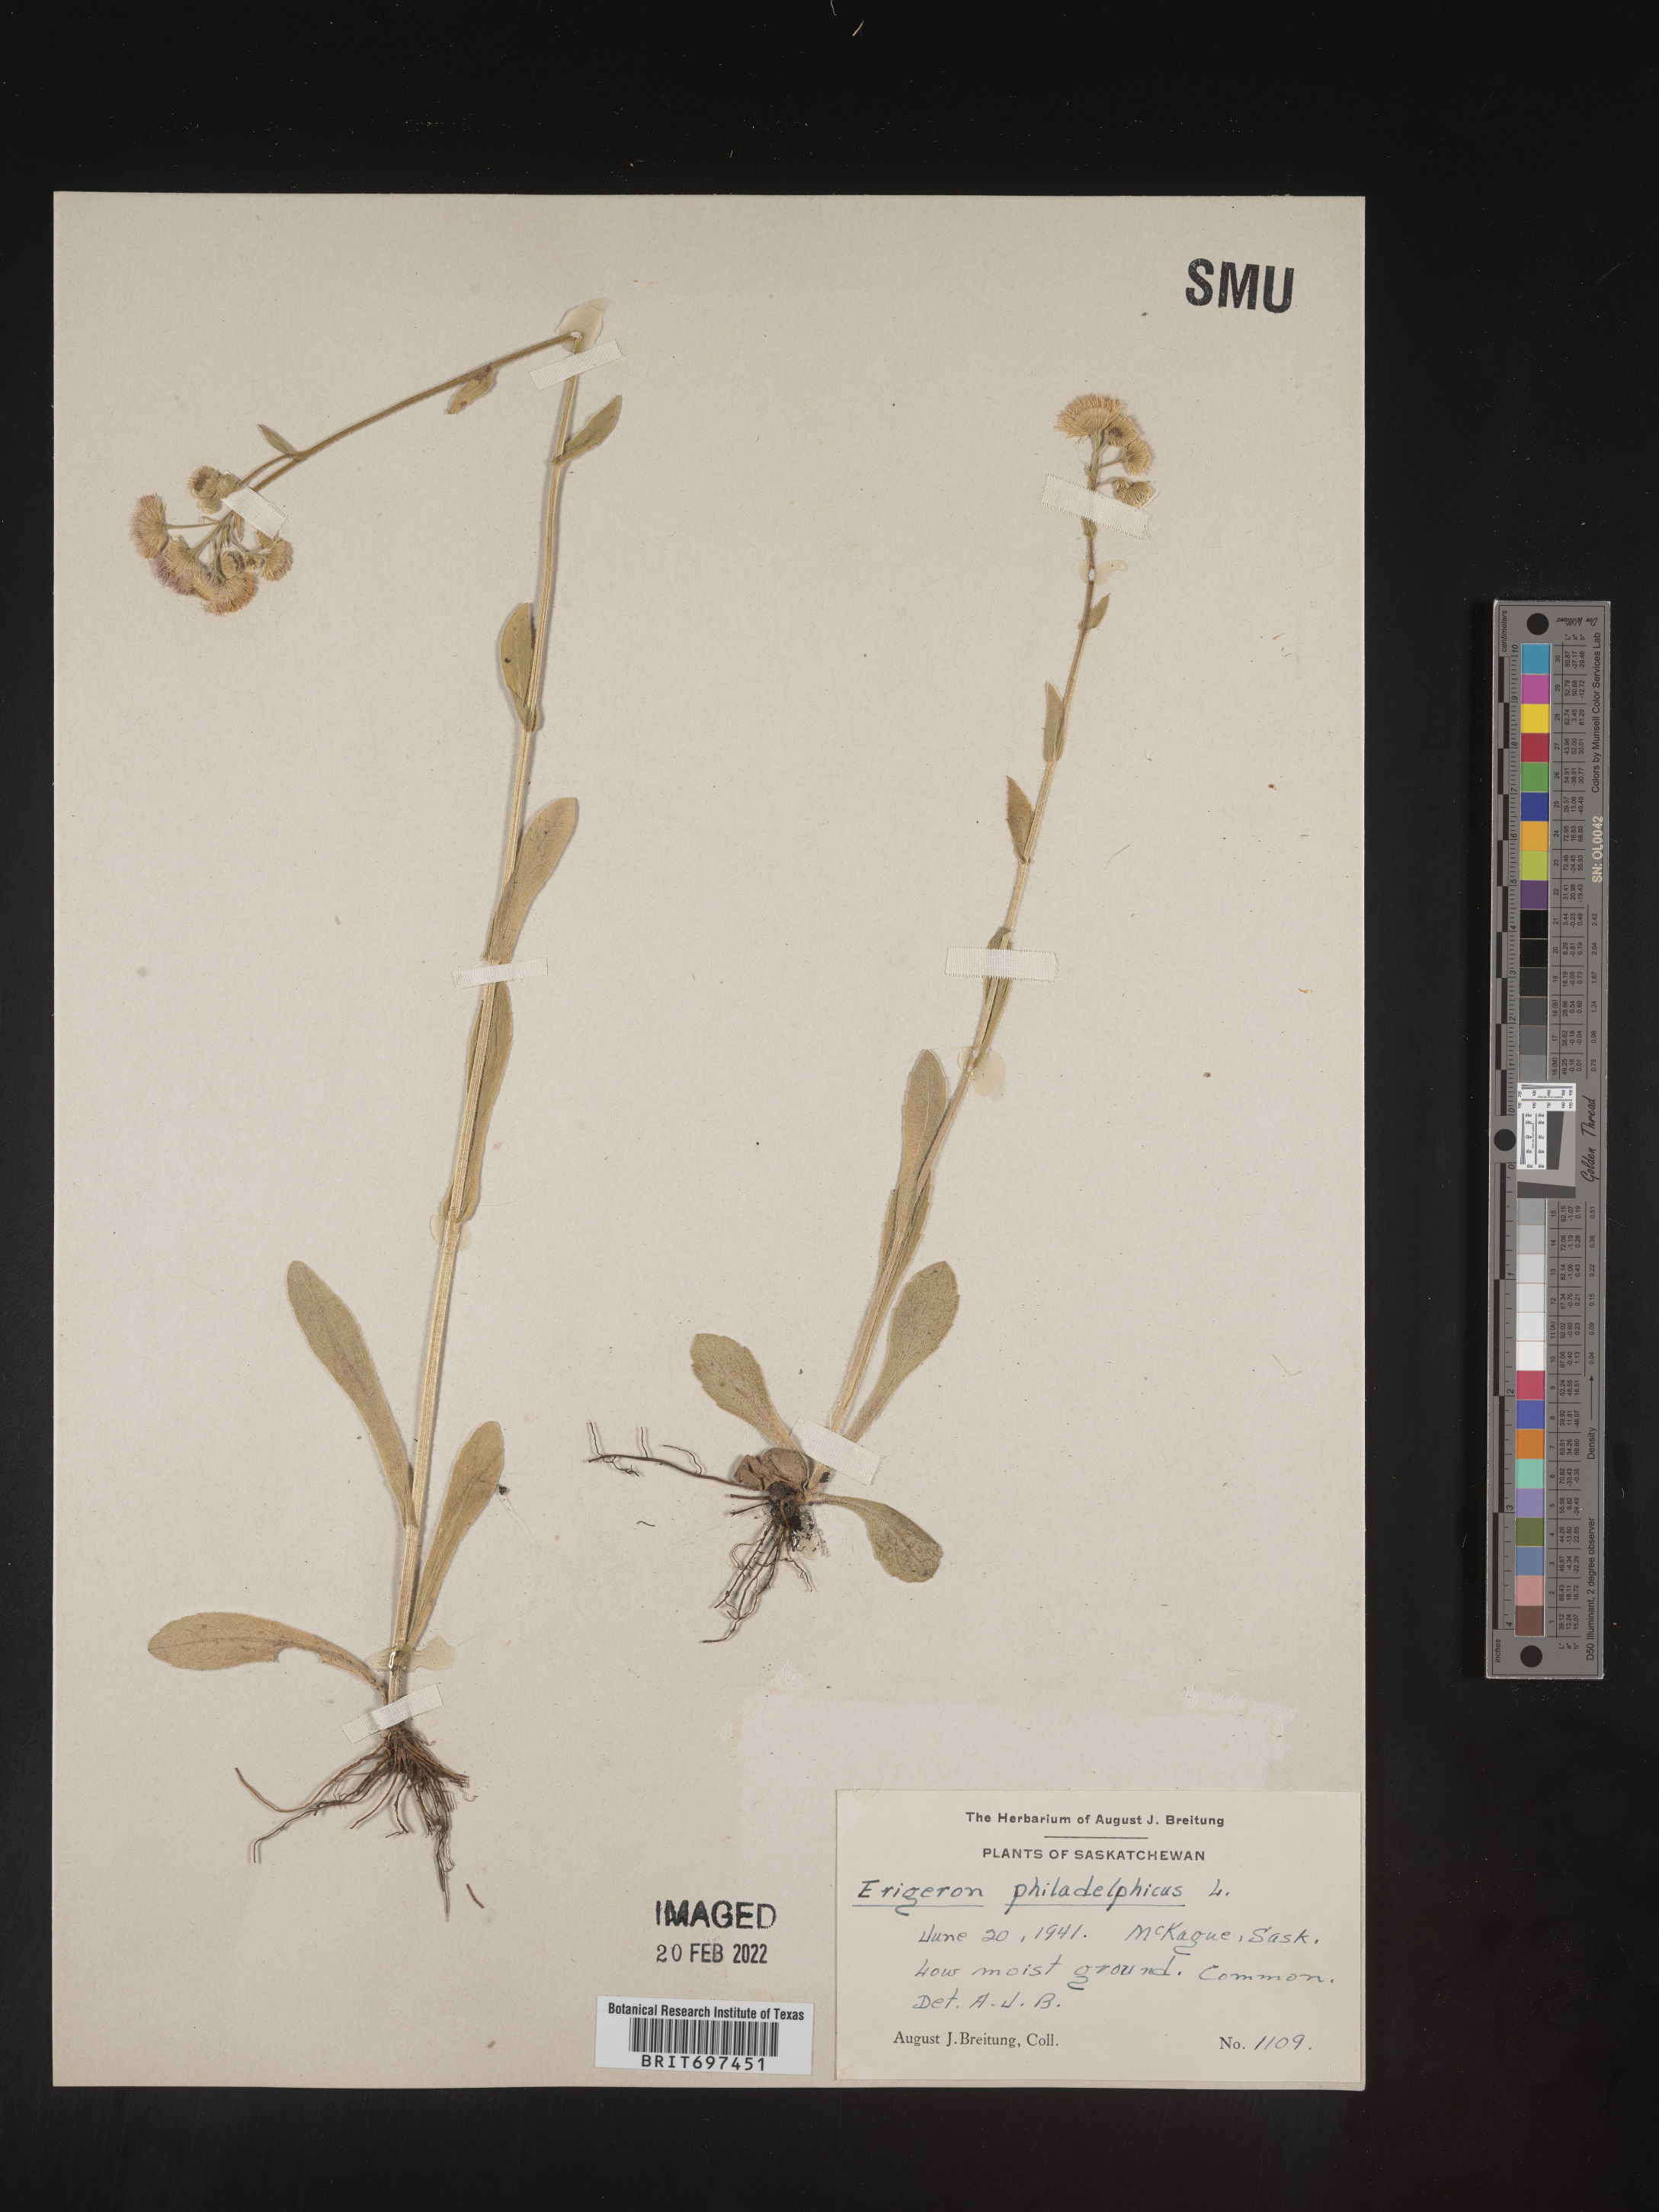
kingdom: Plantae
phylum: Tracheophyta
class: Magnoliopsida
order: Asterales
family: Asteraceae
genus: Erigeron
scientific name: Erigeron philadelphicus
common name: Robin's-plantain
